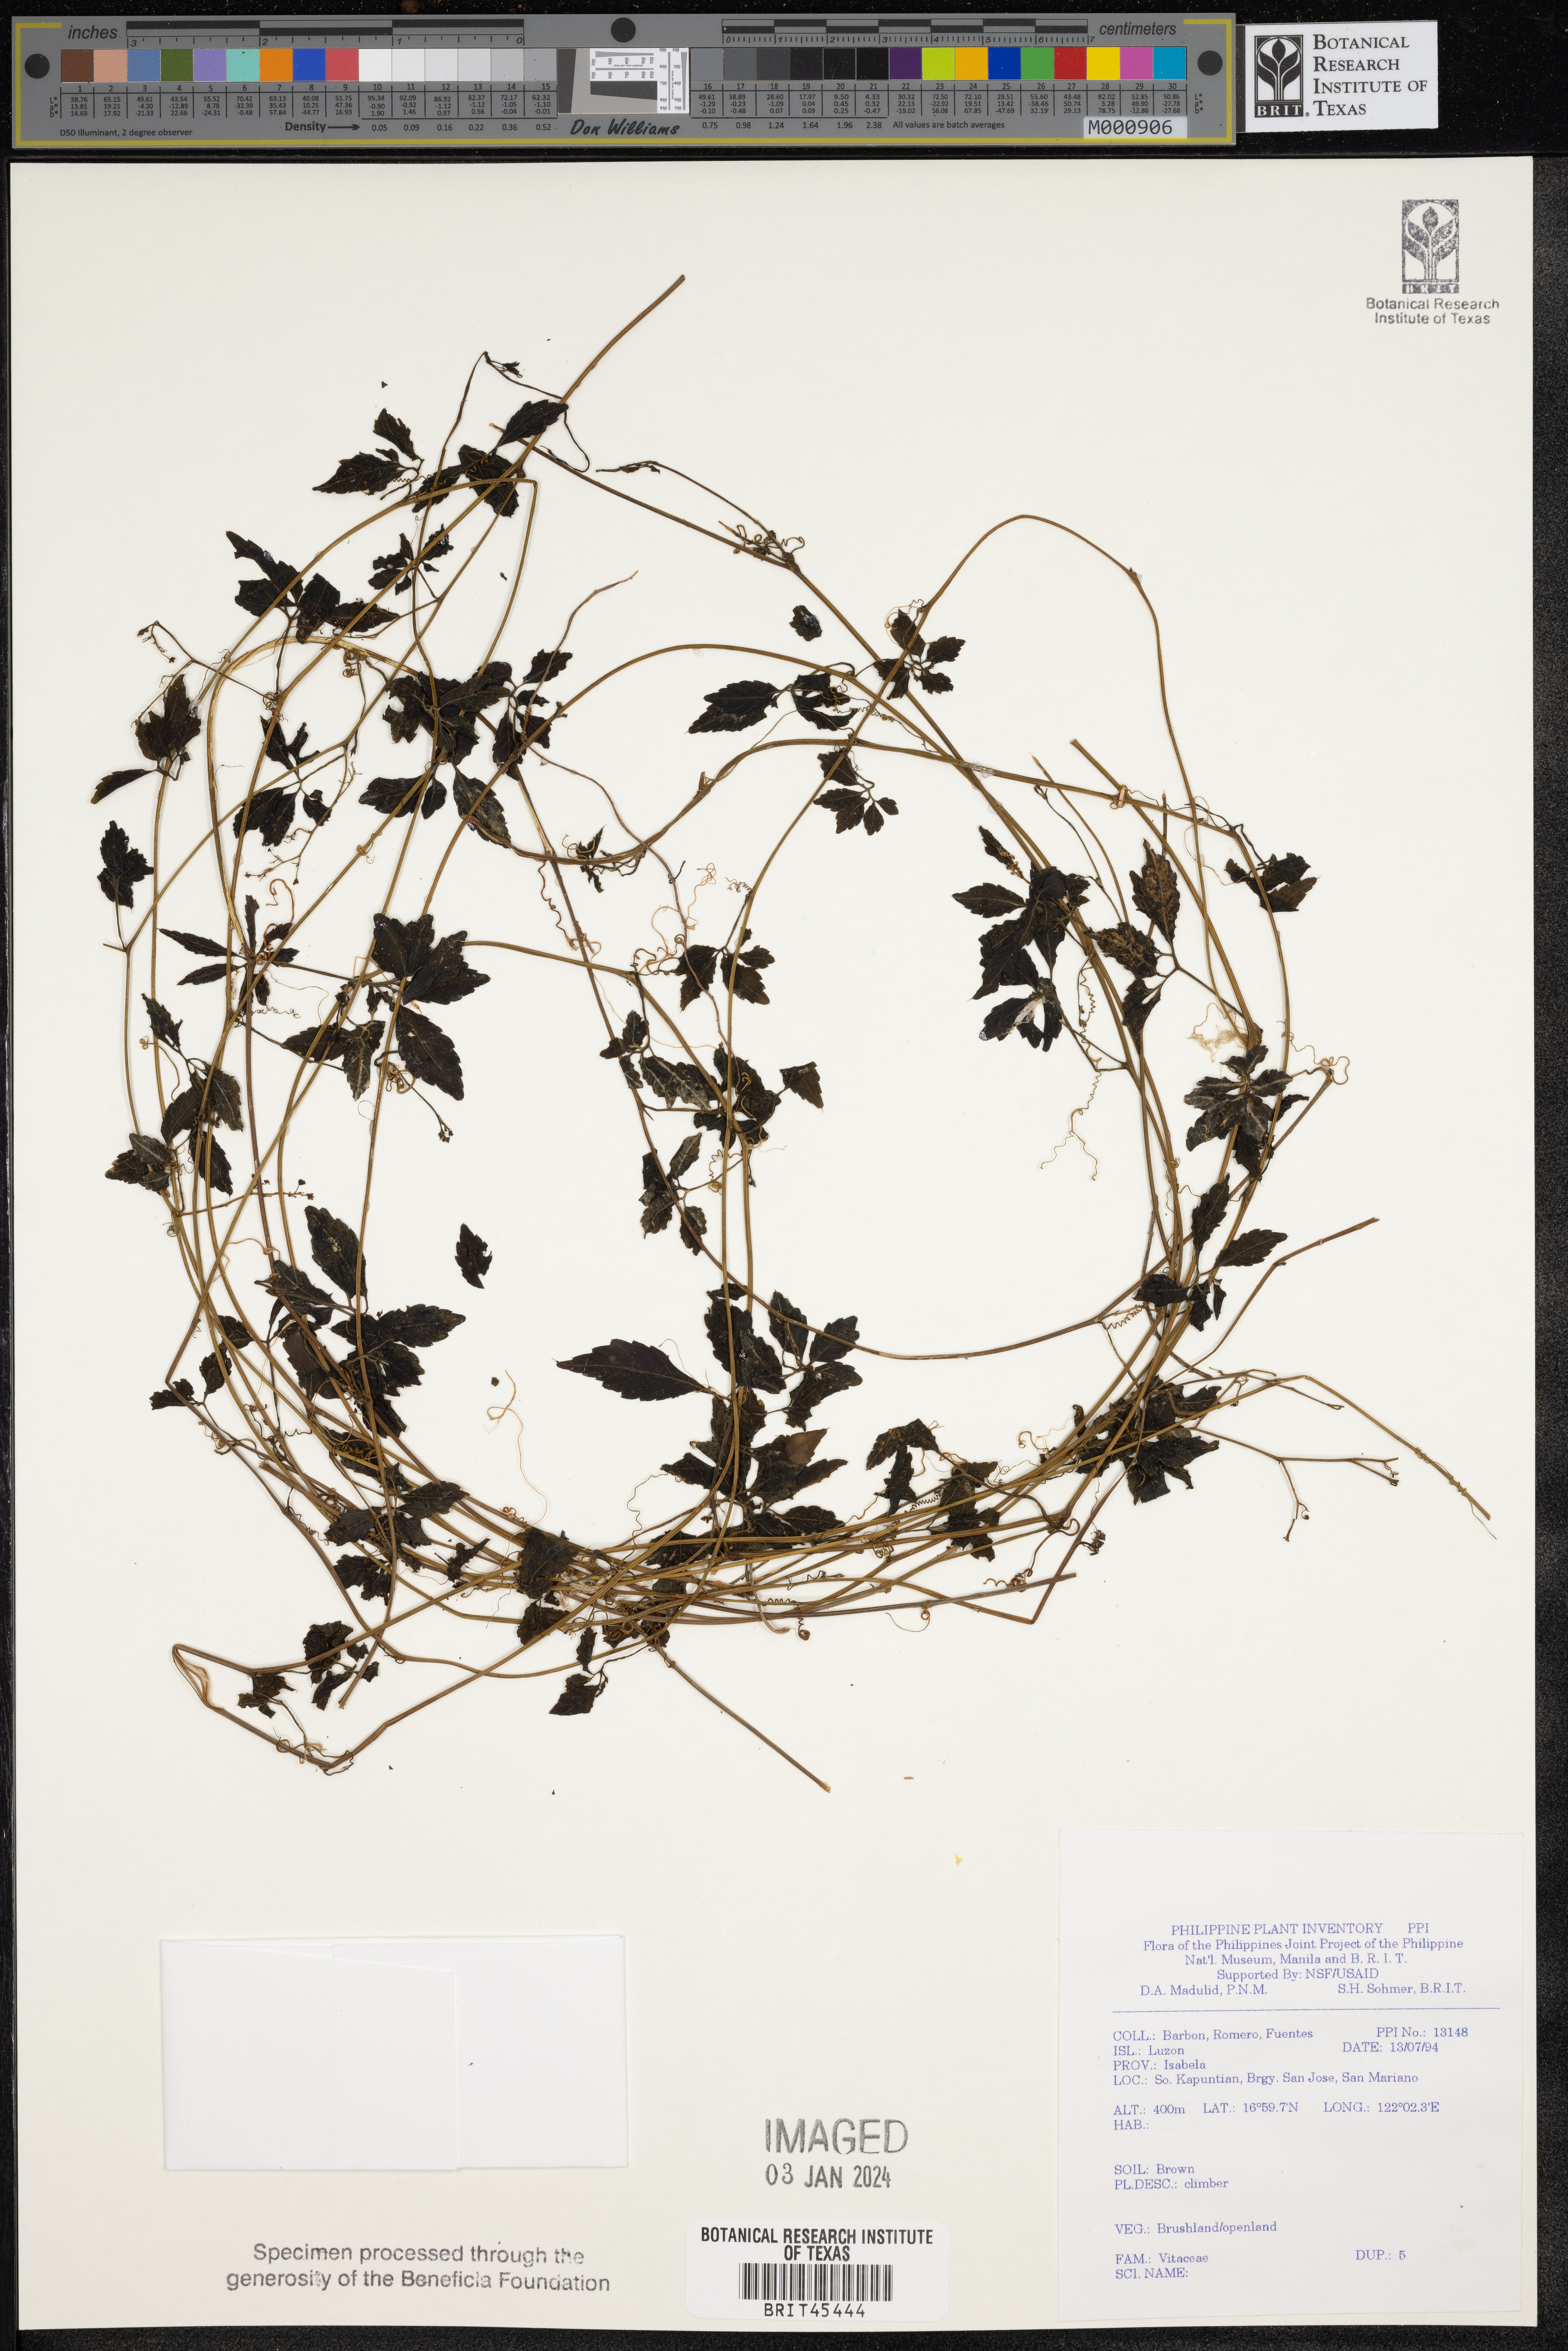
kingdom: Plantae
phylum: Tracheophyta
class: Magnoliopsida
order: Vitales
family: Vitaceae
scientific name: Vitaceae
